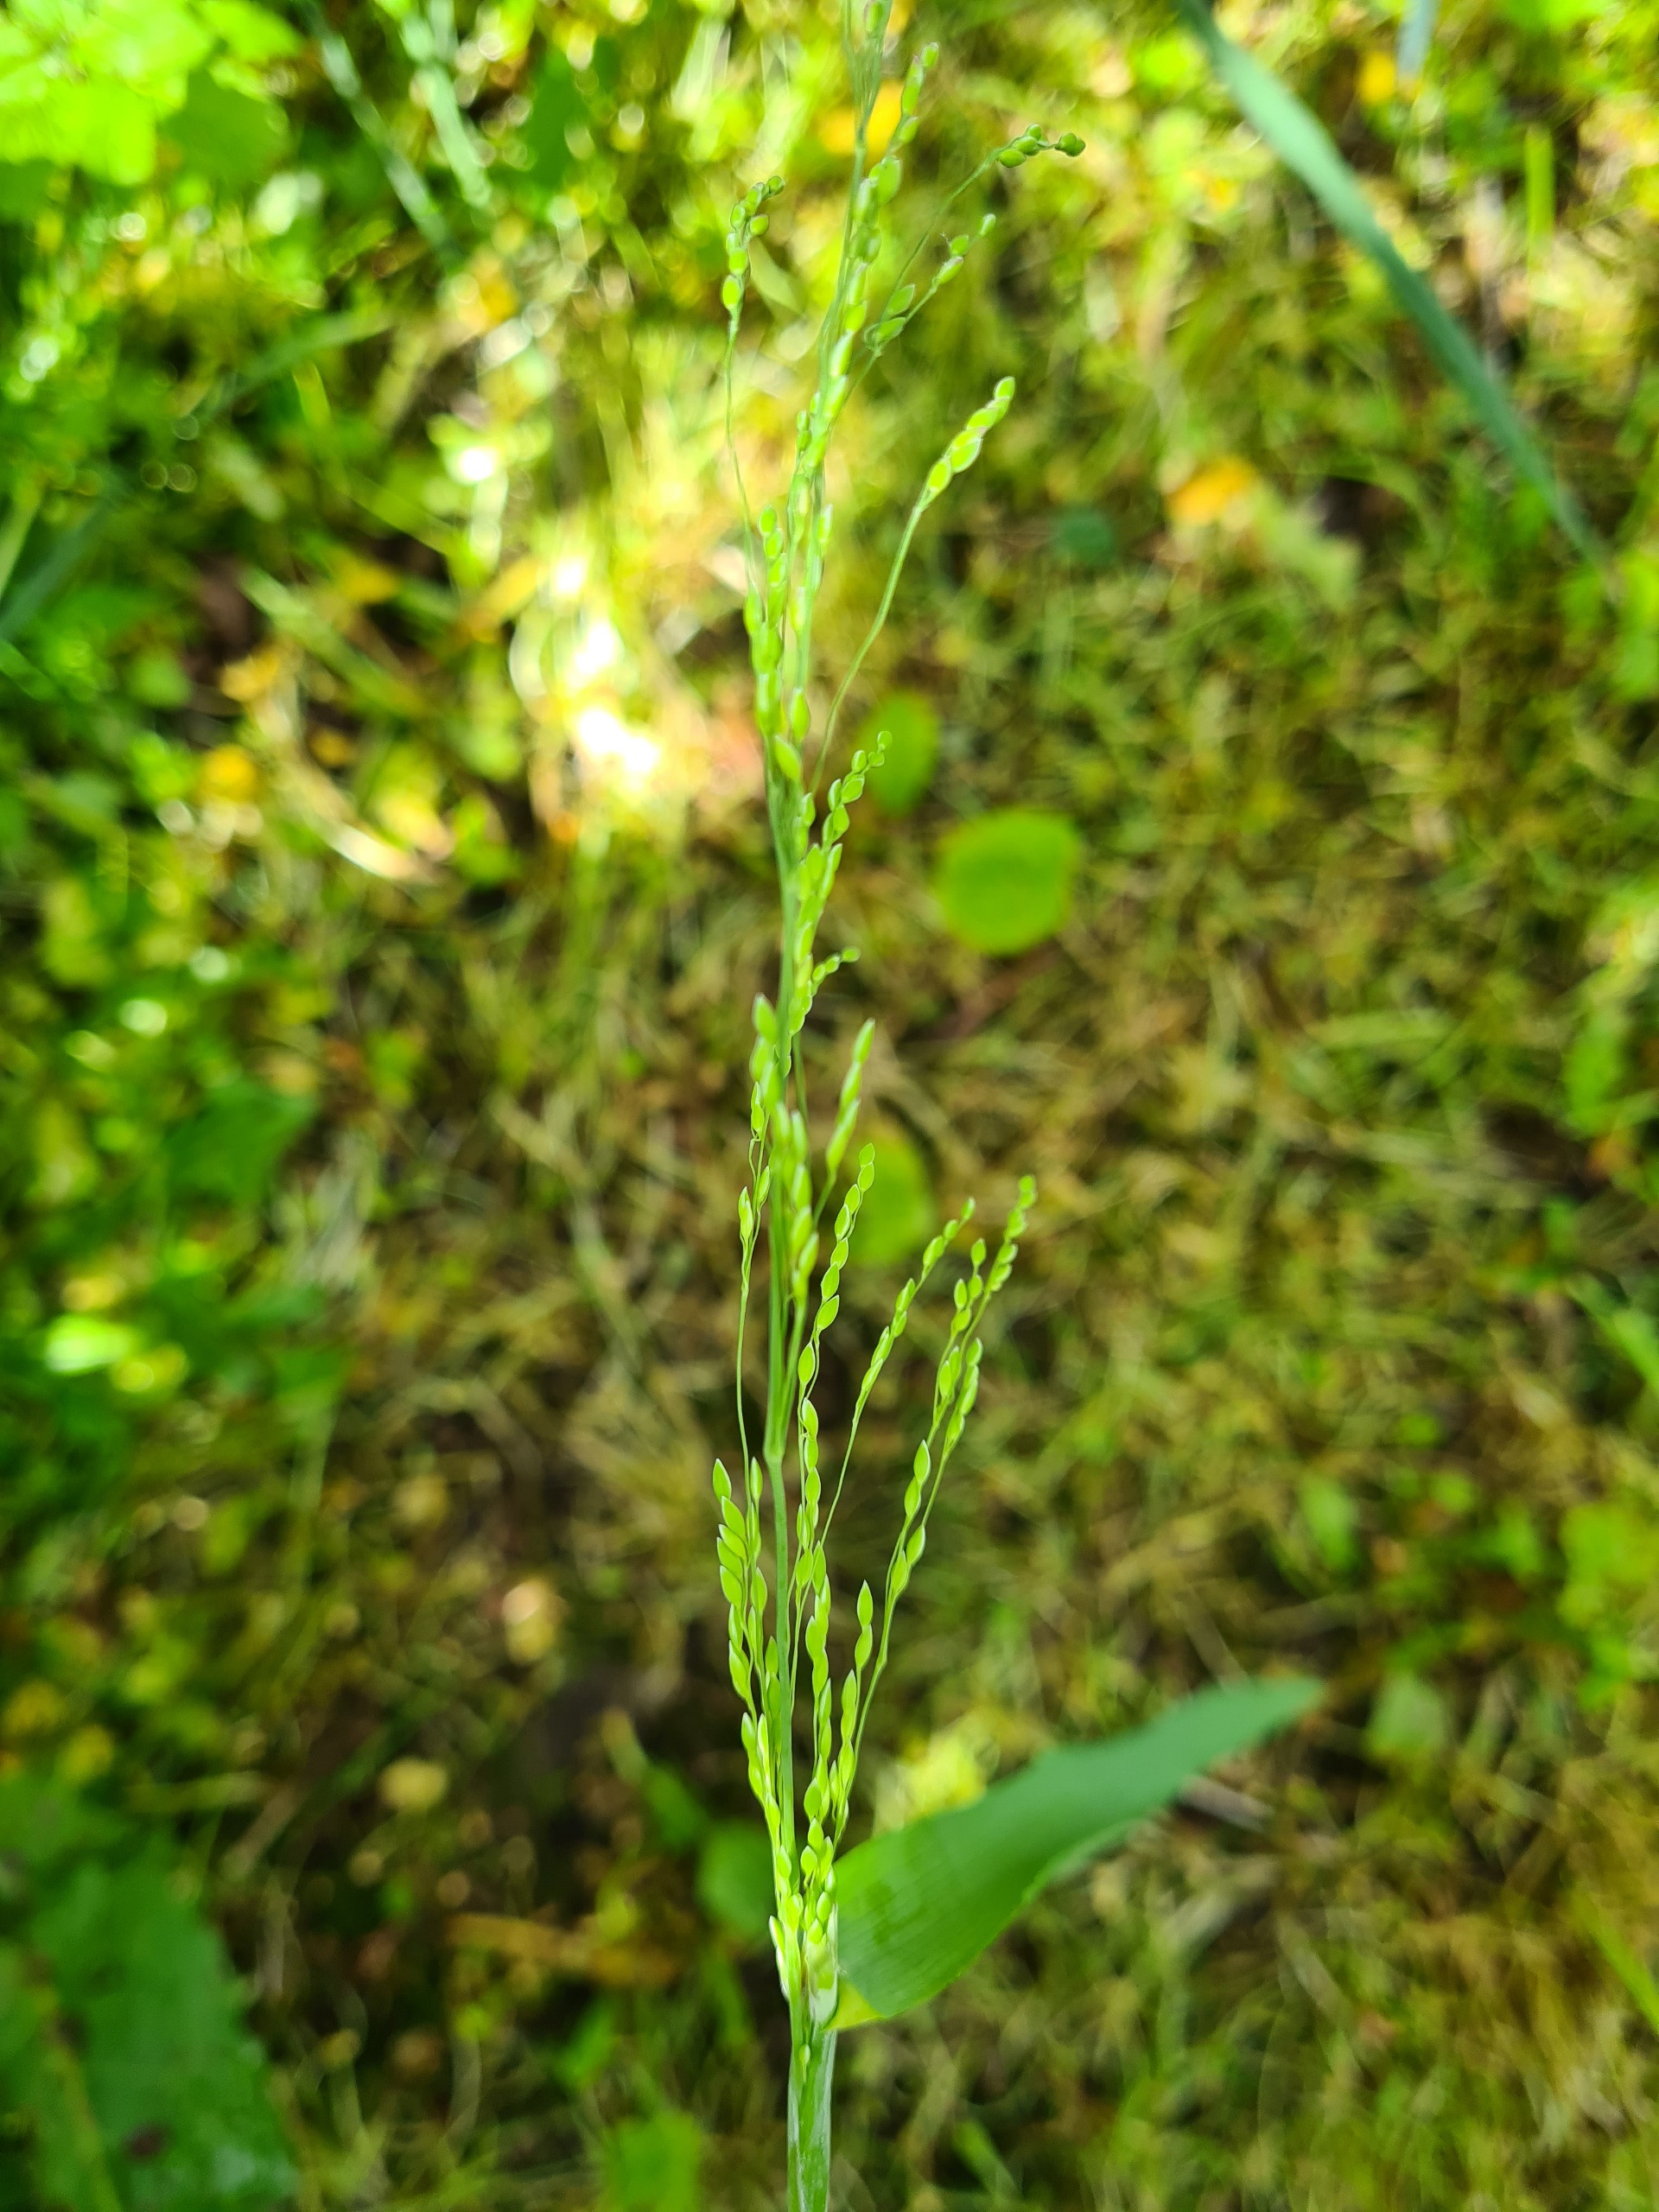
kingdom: Plantae
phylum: Tracheophyta
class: Liliopsida
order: Poales
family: Poaceae
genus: Milium
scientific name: Milium effusum
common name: Miliegræs
